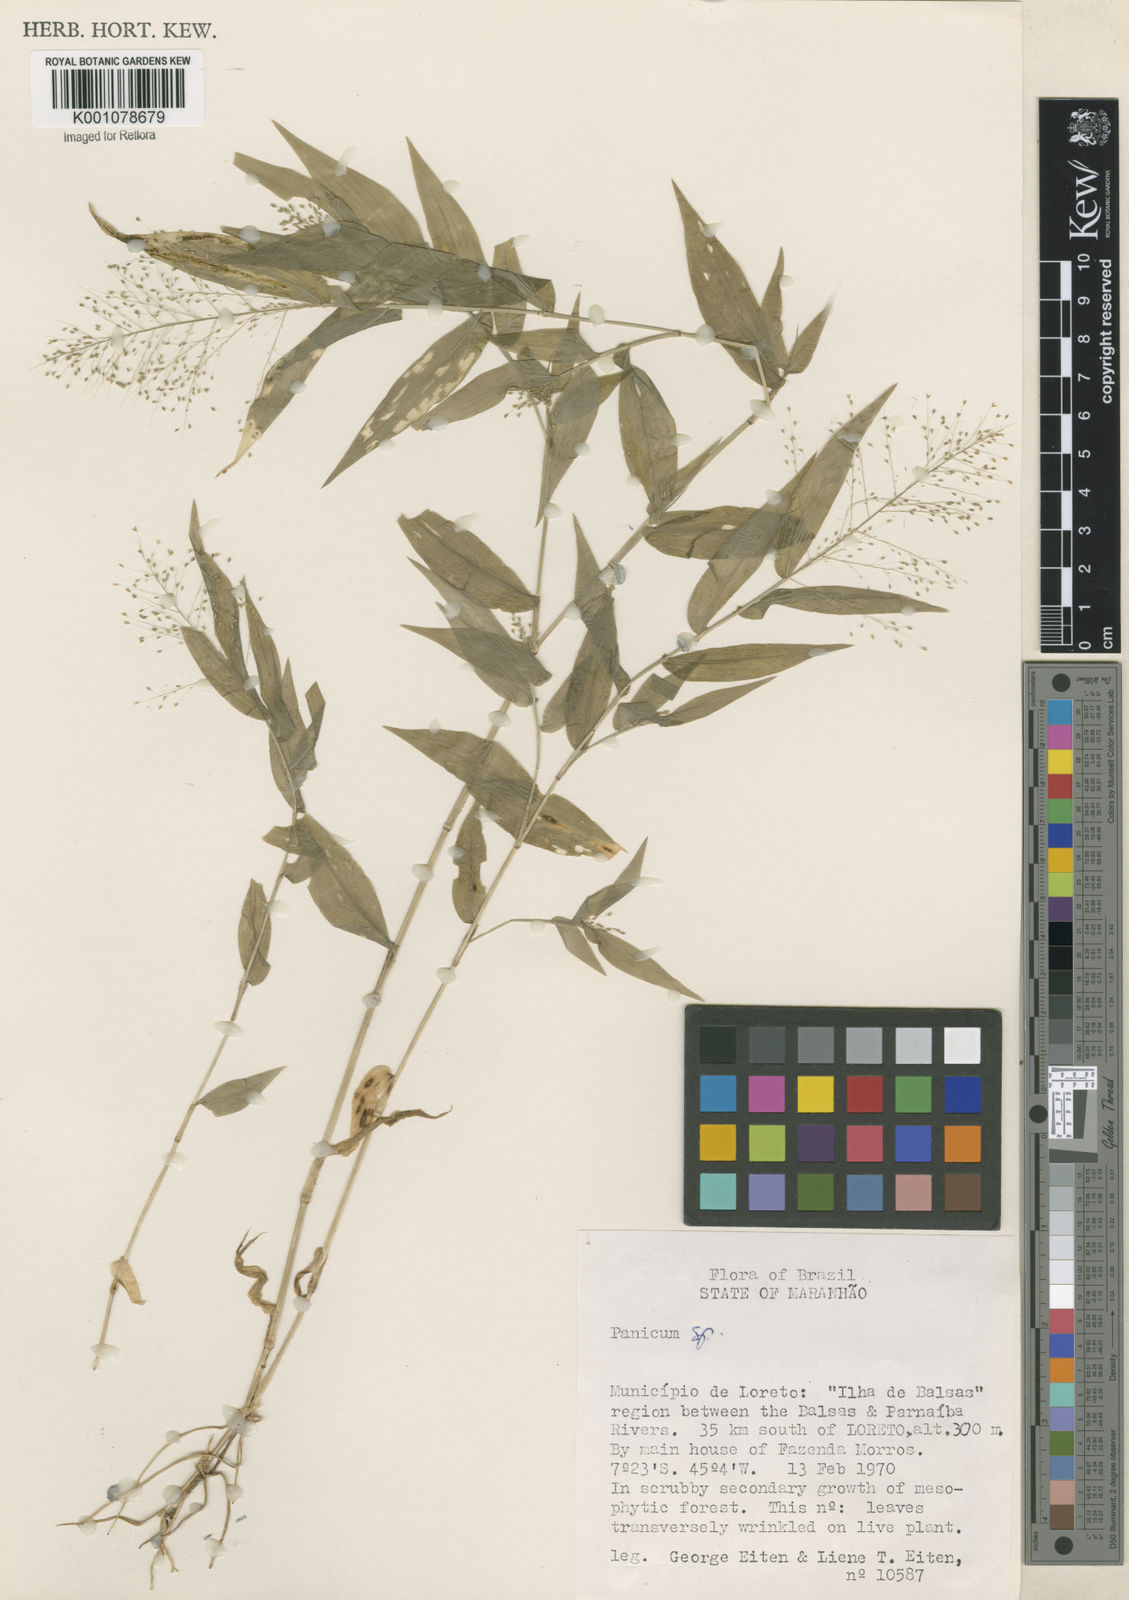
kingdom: Plantae
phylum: Tracheophyta
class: Liliopsida
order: Poales
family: Poaceae
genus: Panicum
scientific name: Panicum trichoides
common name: Tickle grass
